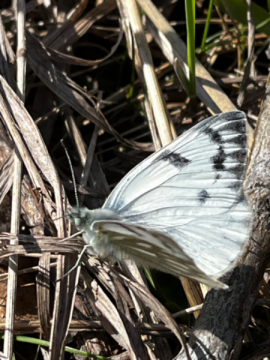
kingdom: Animalia
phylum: Arthropoda
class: Insecta
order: Lepidoptera
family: Pieridae
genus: Pontia
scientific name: Pontia occidentalis
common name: Western White
